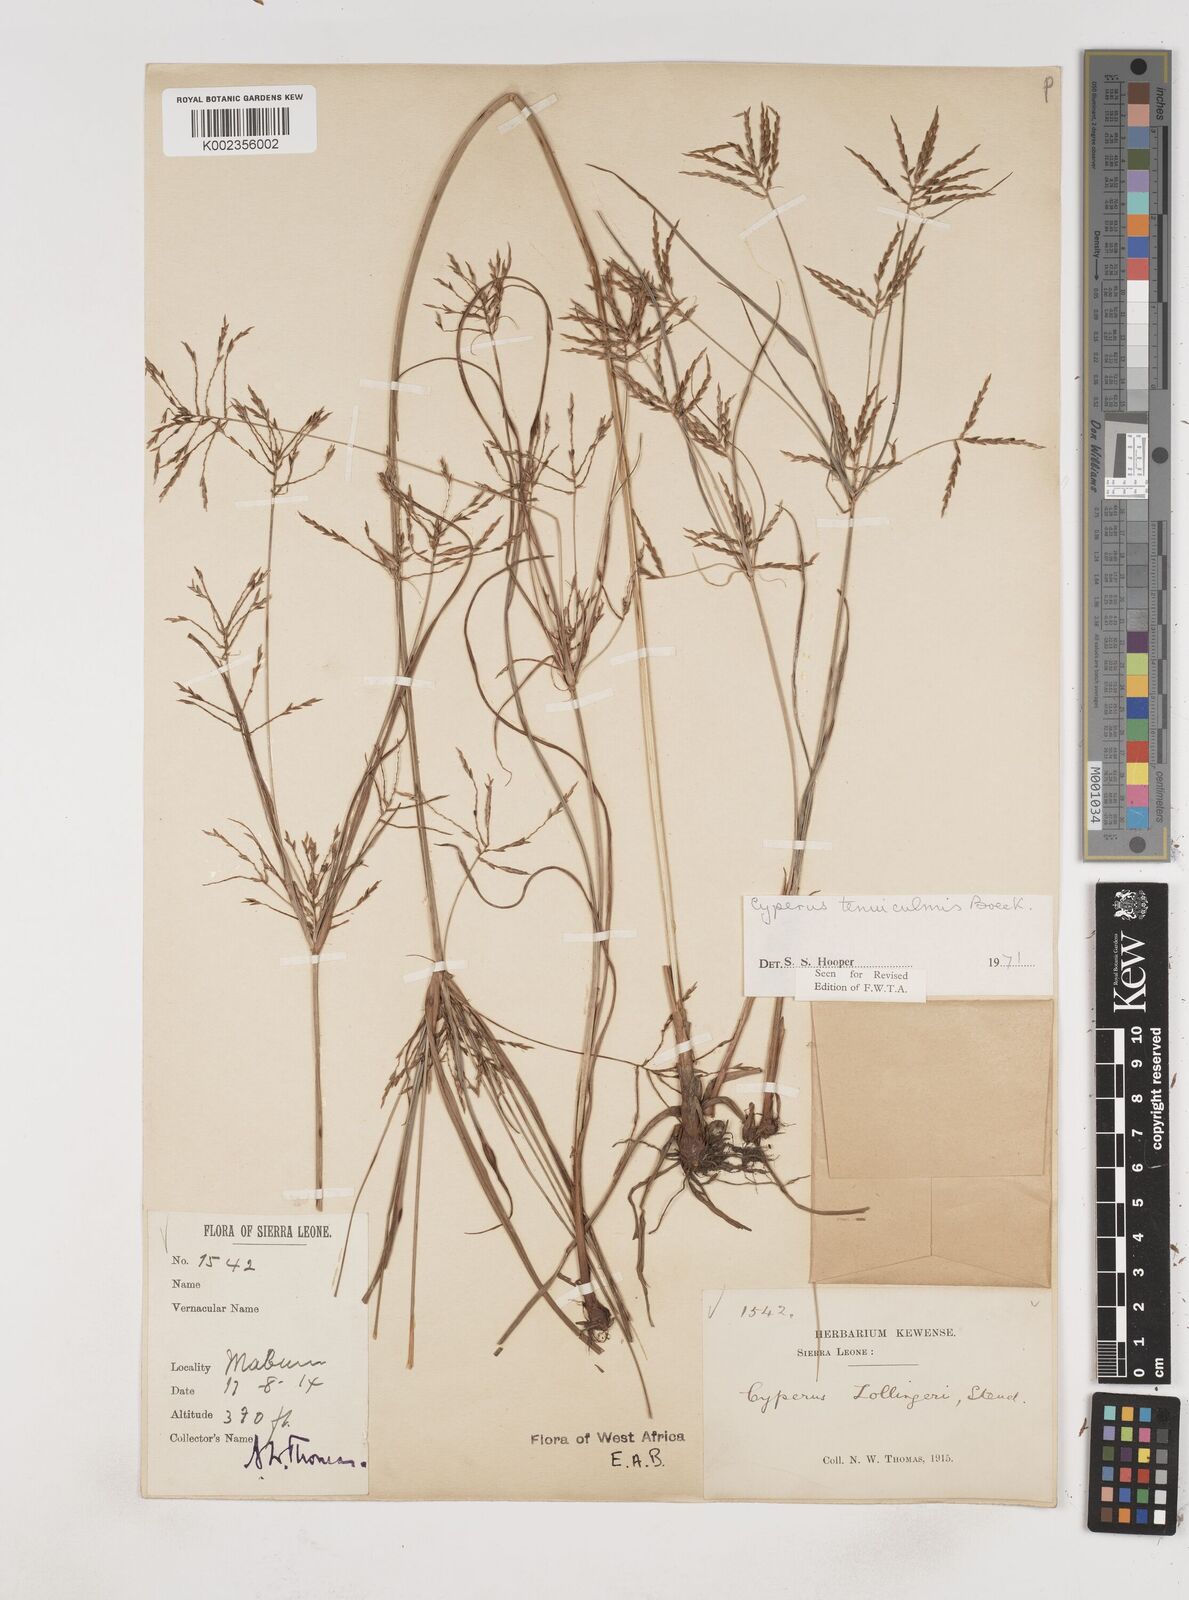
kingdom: Plantae
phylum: Tracheophyta
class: Liliopsida
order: Poales
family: Cyperaceae
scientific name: Cyperaceae
